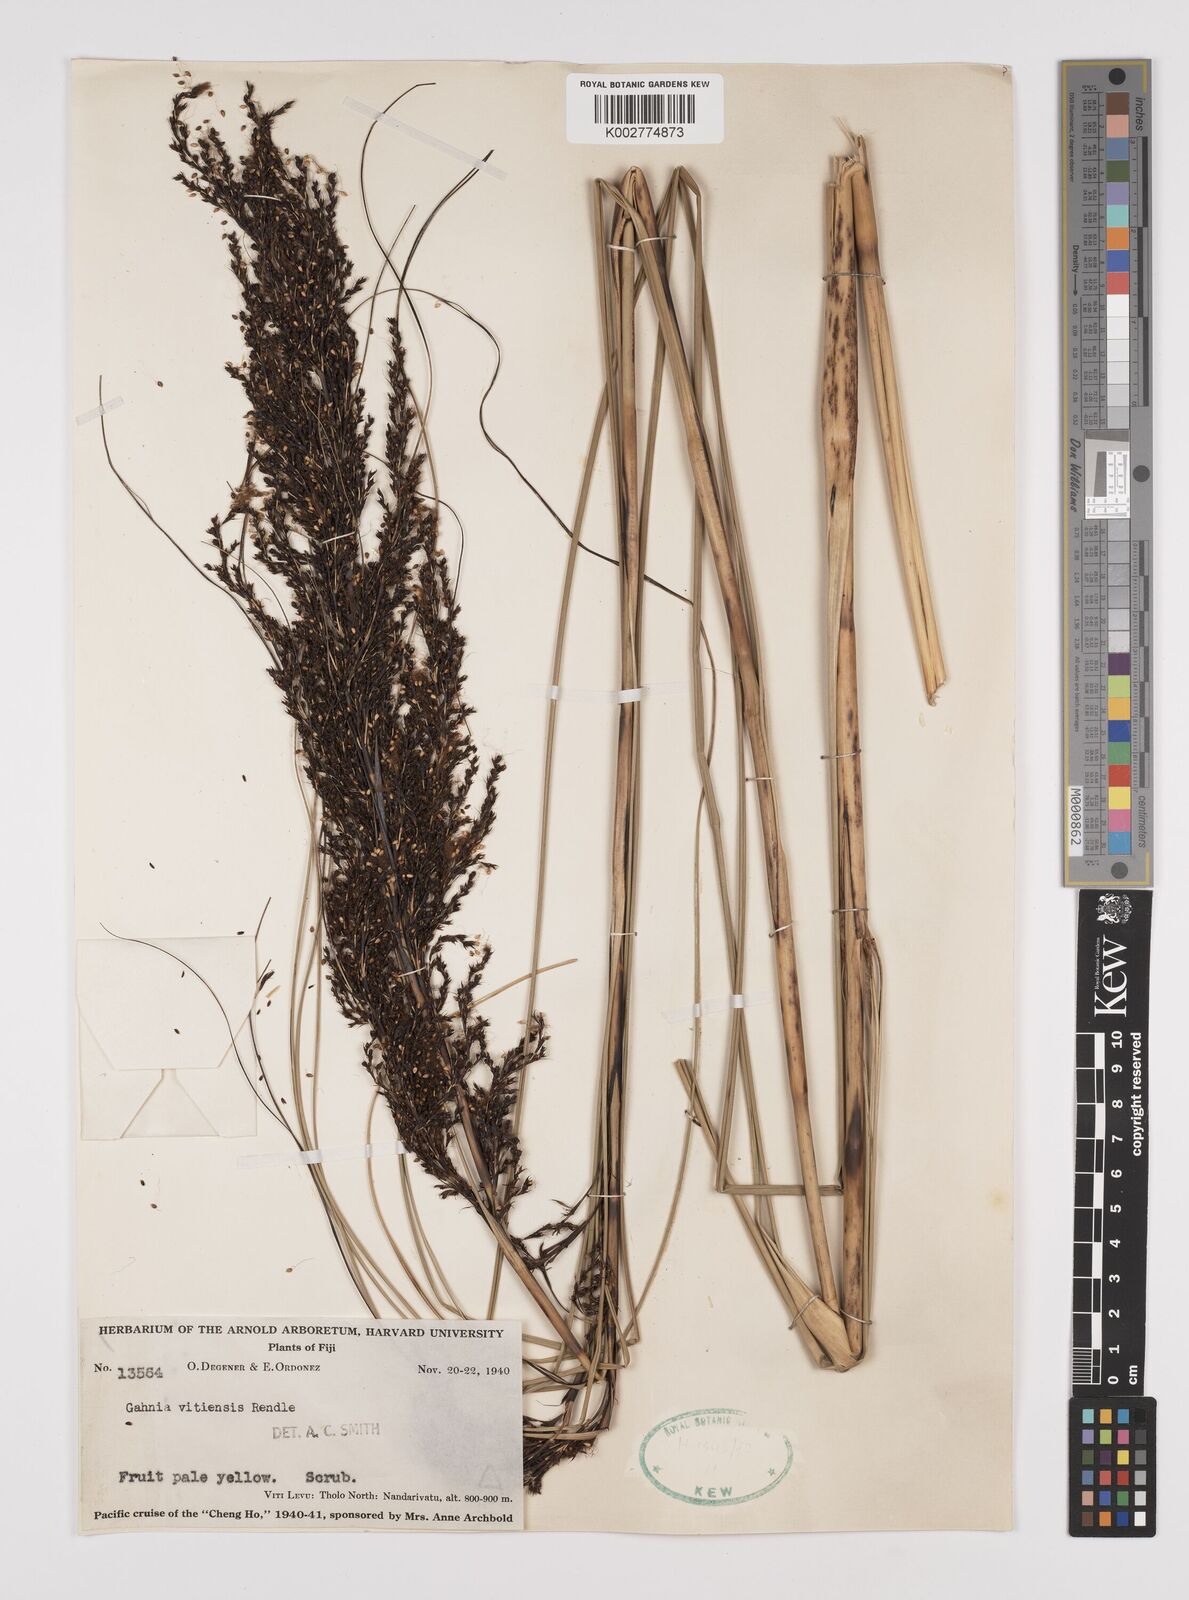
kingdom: Plantae
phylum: Tracheophyta
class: Liliopsida
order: Poales
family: Cyperaceae
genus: Gahnia
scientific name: Gahnia vitiensis
